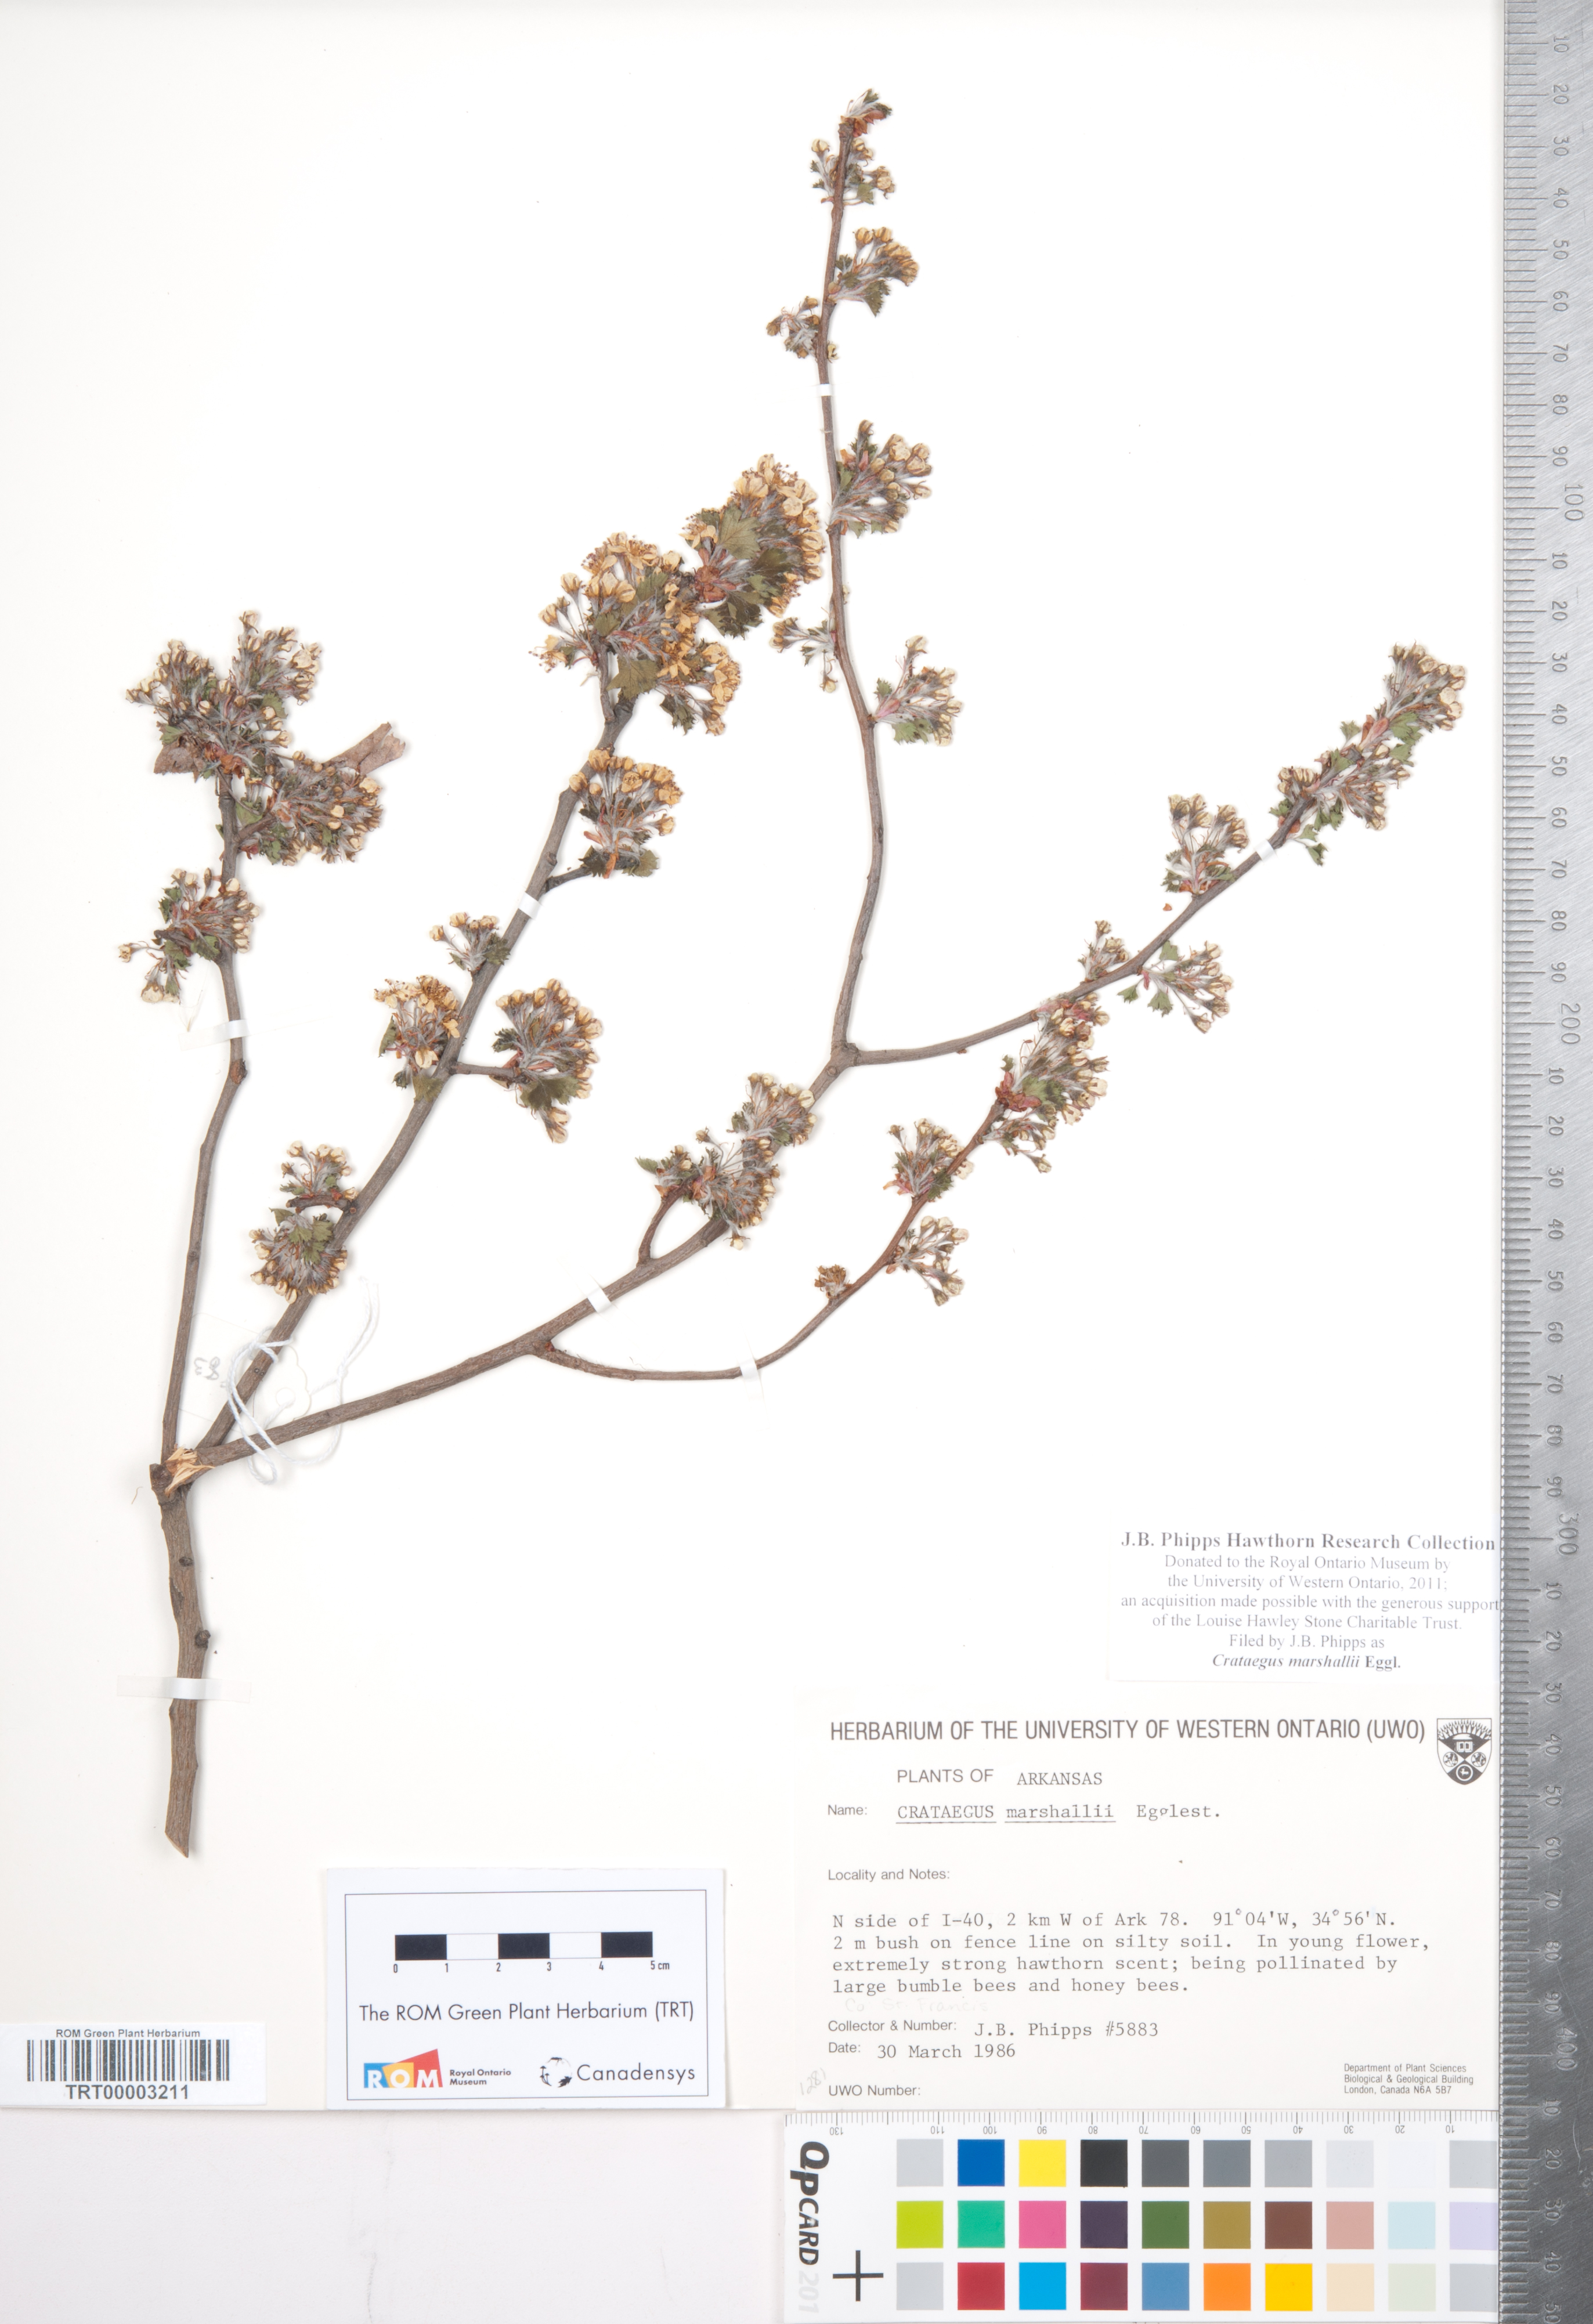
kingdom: Plantae
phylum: Tracheophyta
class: Magnoliopsida
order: Rosales
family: Rosaceae
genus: Crataegus
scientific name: Crataegus marshallii
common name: Parsley-hawthorn
